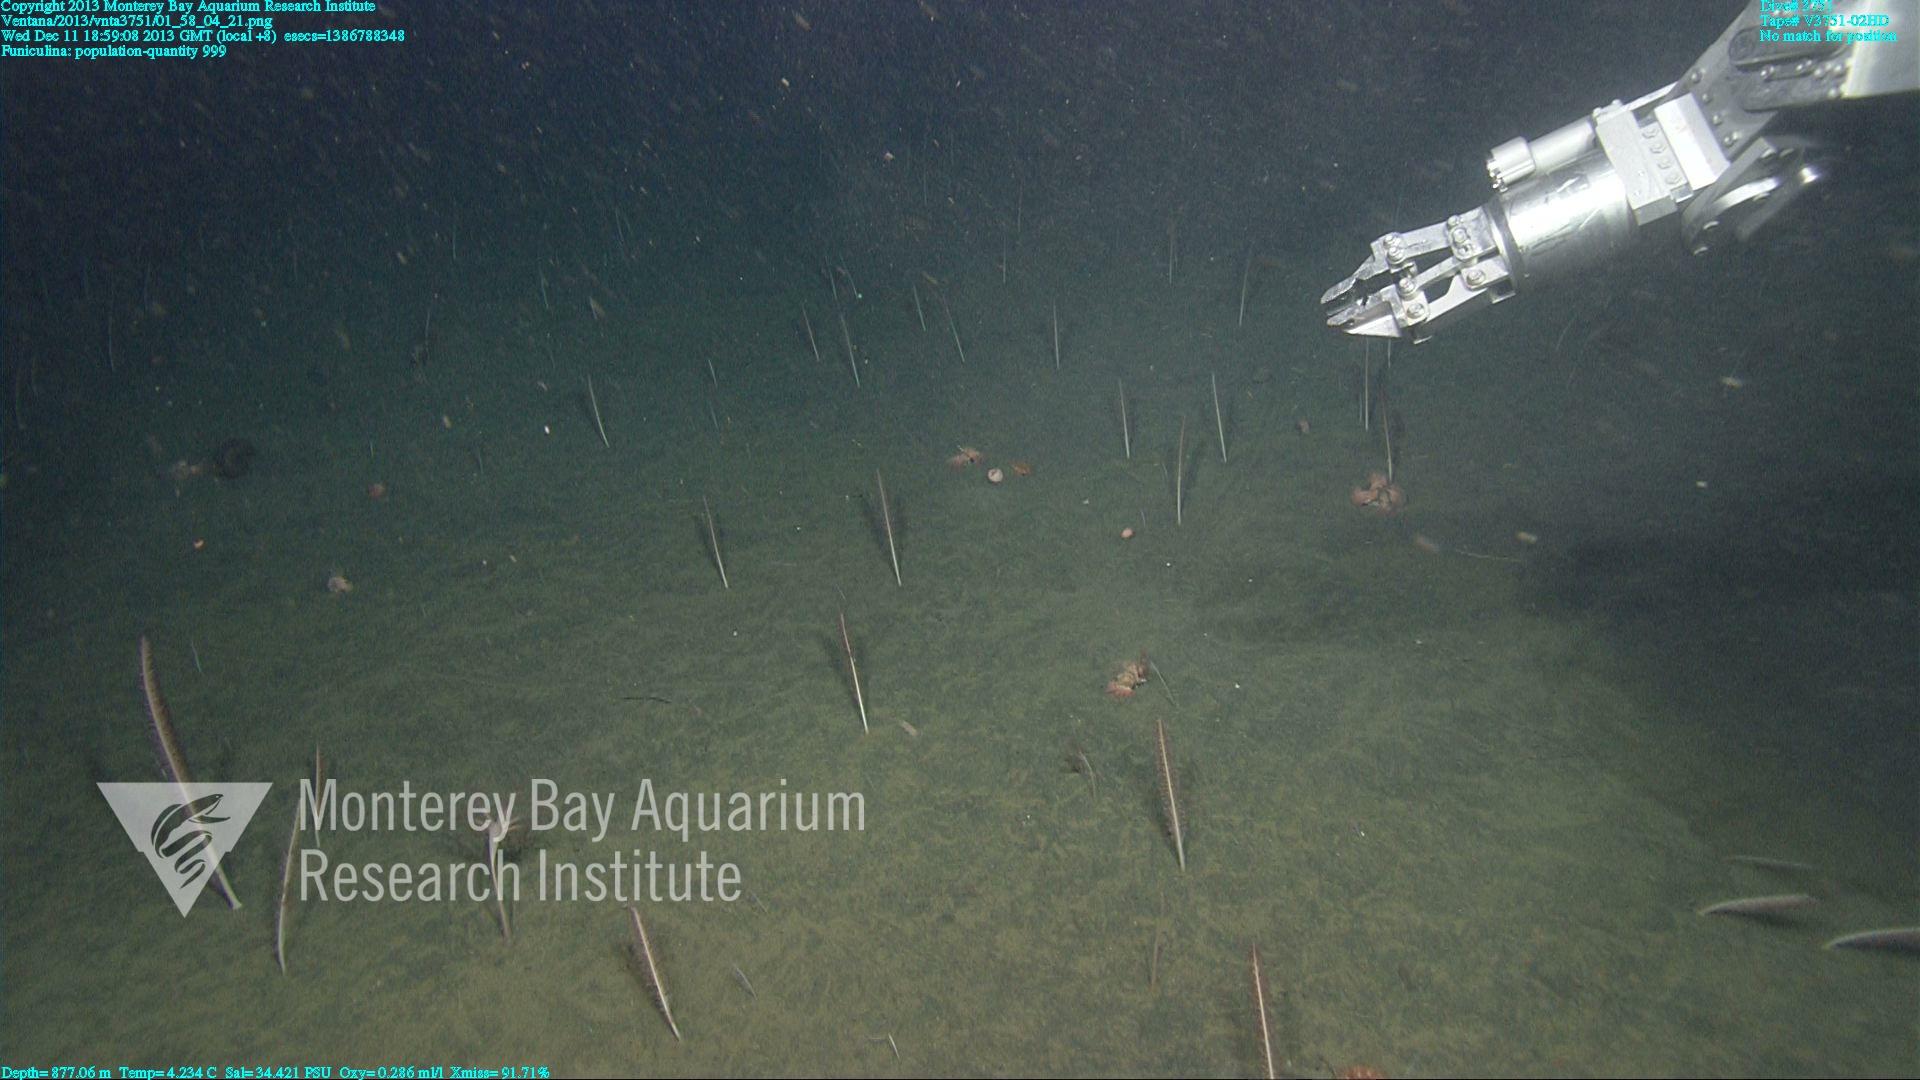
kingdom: Animalia
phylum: Cnidaria
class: Anthozoa
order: Scleralcyonacea
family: Funiculinidae
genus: Funiculina
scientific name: Funiculina
